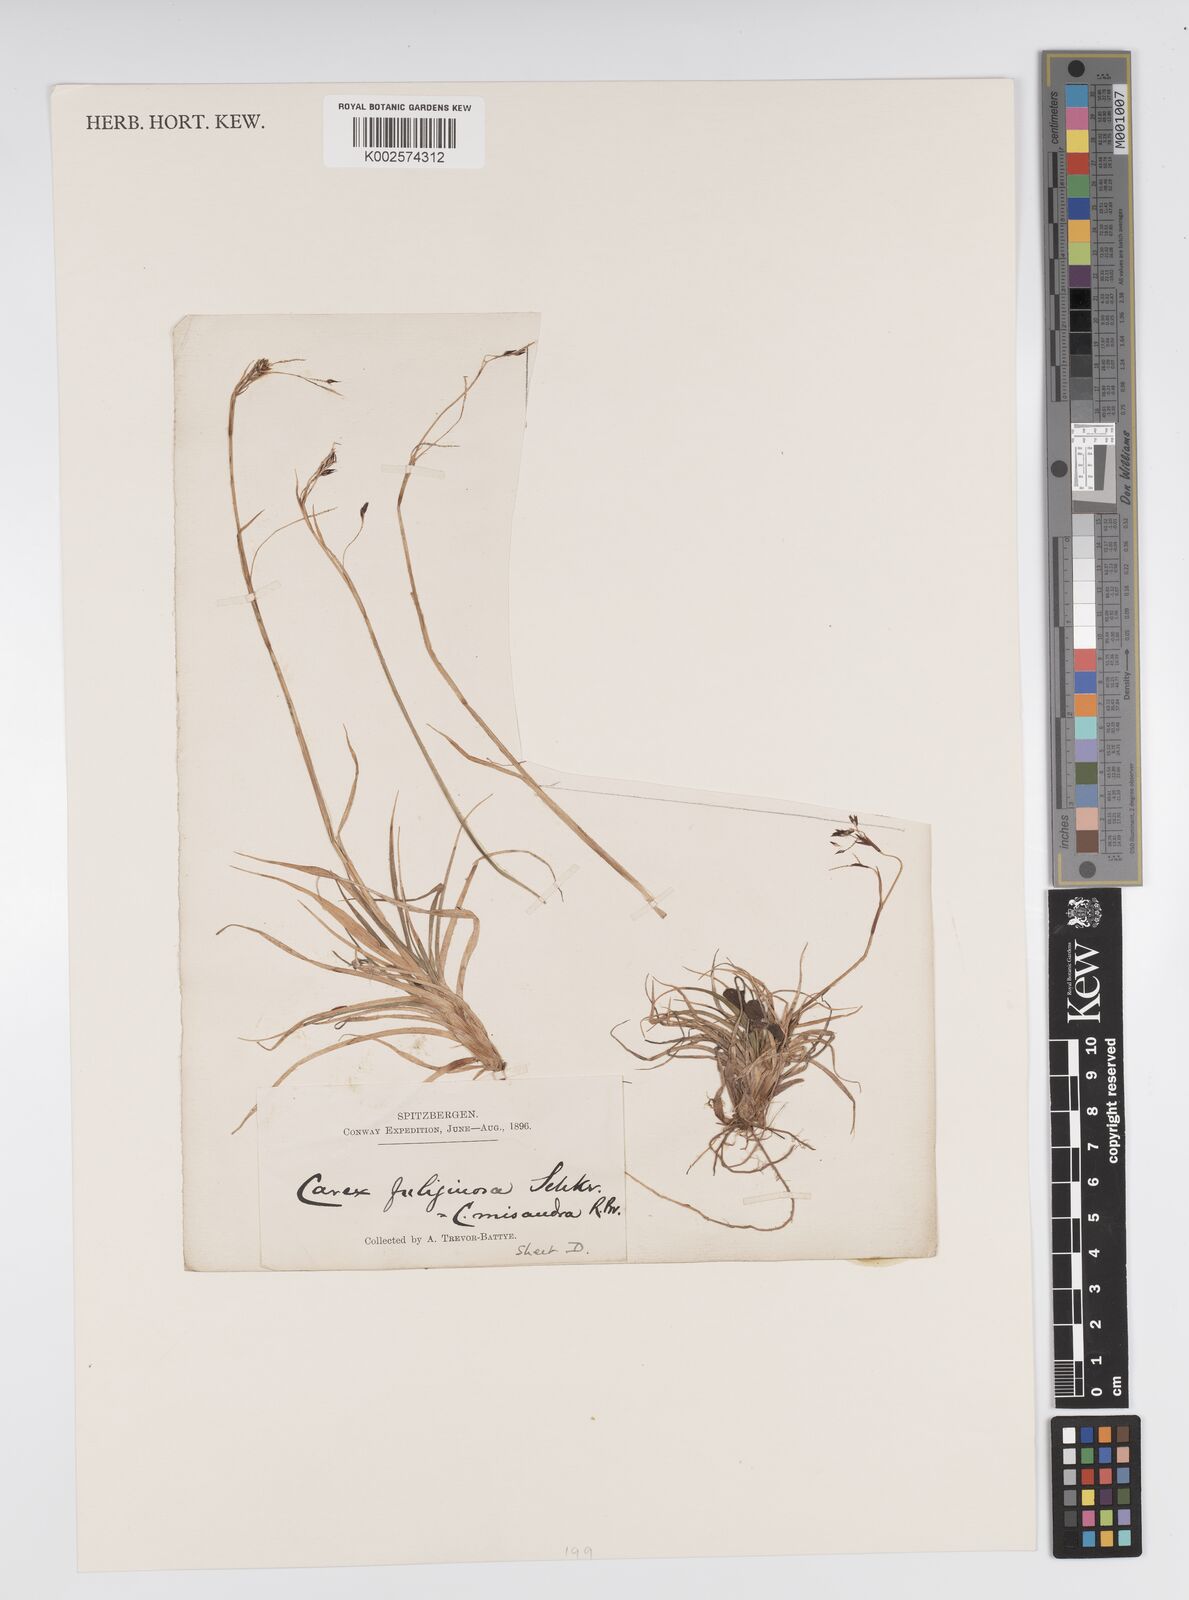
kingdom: Plantae
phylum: Tracheophyta
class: Liliopsida
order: Poales
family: Cyperaceae
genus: Carex
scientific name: Carex fuliginosa
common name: Few-flowered sedge
